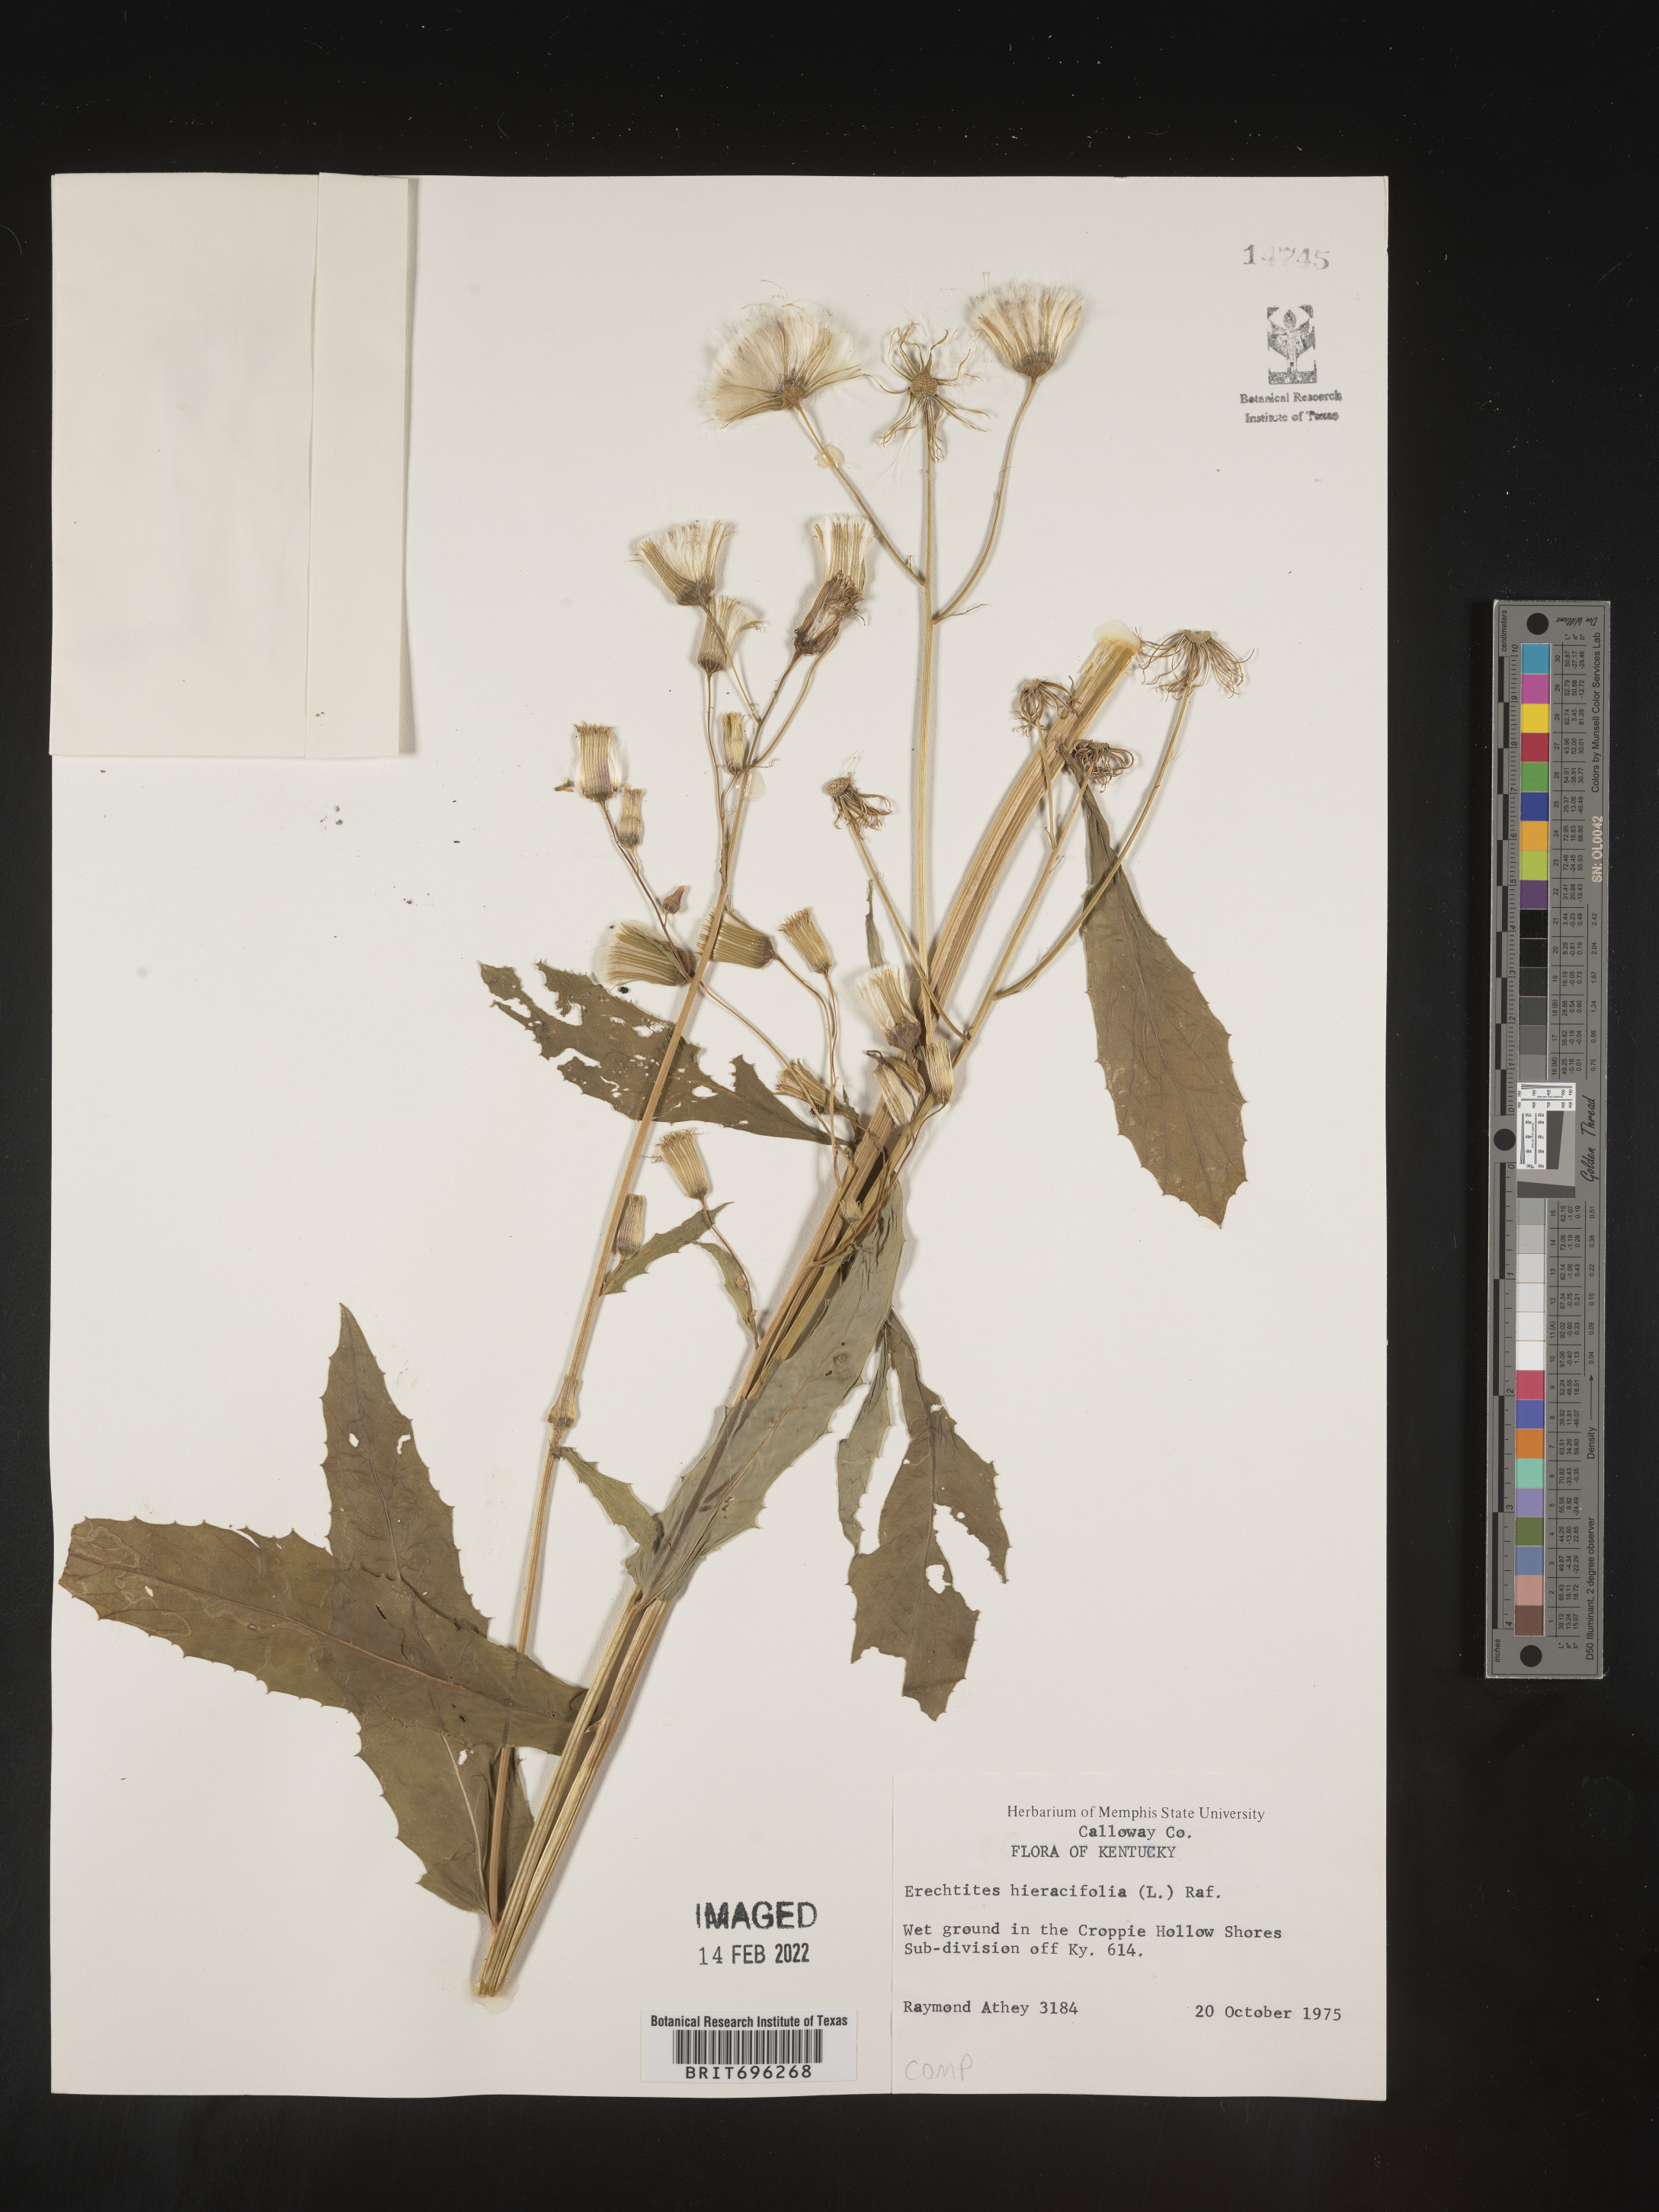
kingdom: Plantae
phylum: Tracheophyta
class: Magnoliopsida
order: Asterales
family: Asteraceae
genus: Erechtites
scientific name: Erechtites hieraciifolius
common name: American burnweed
